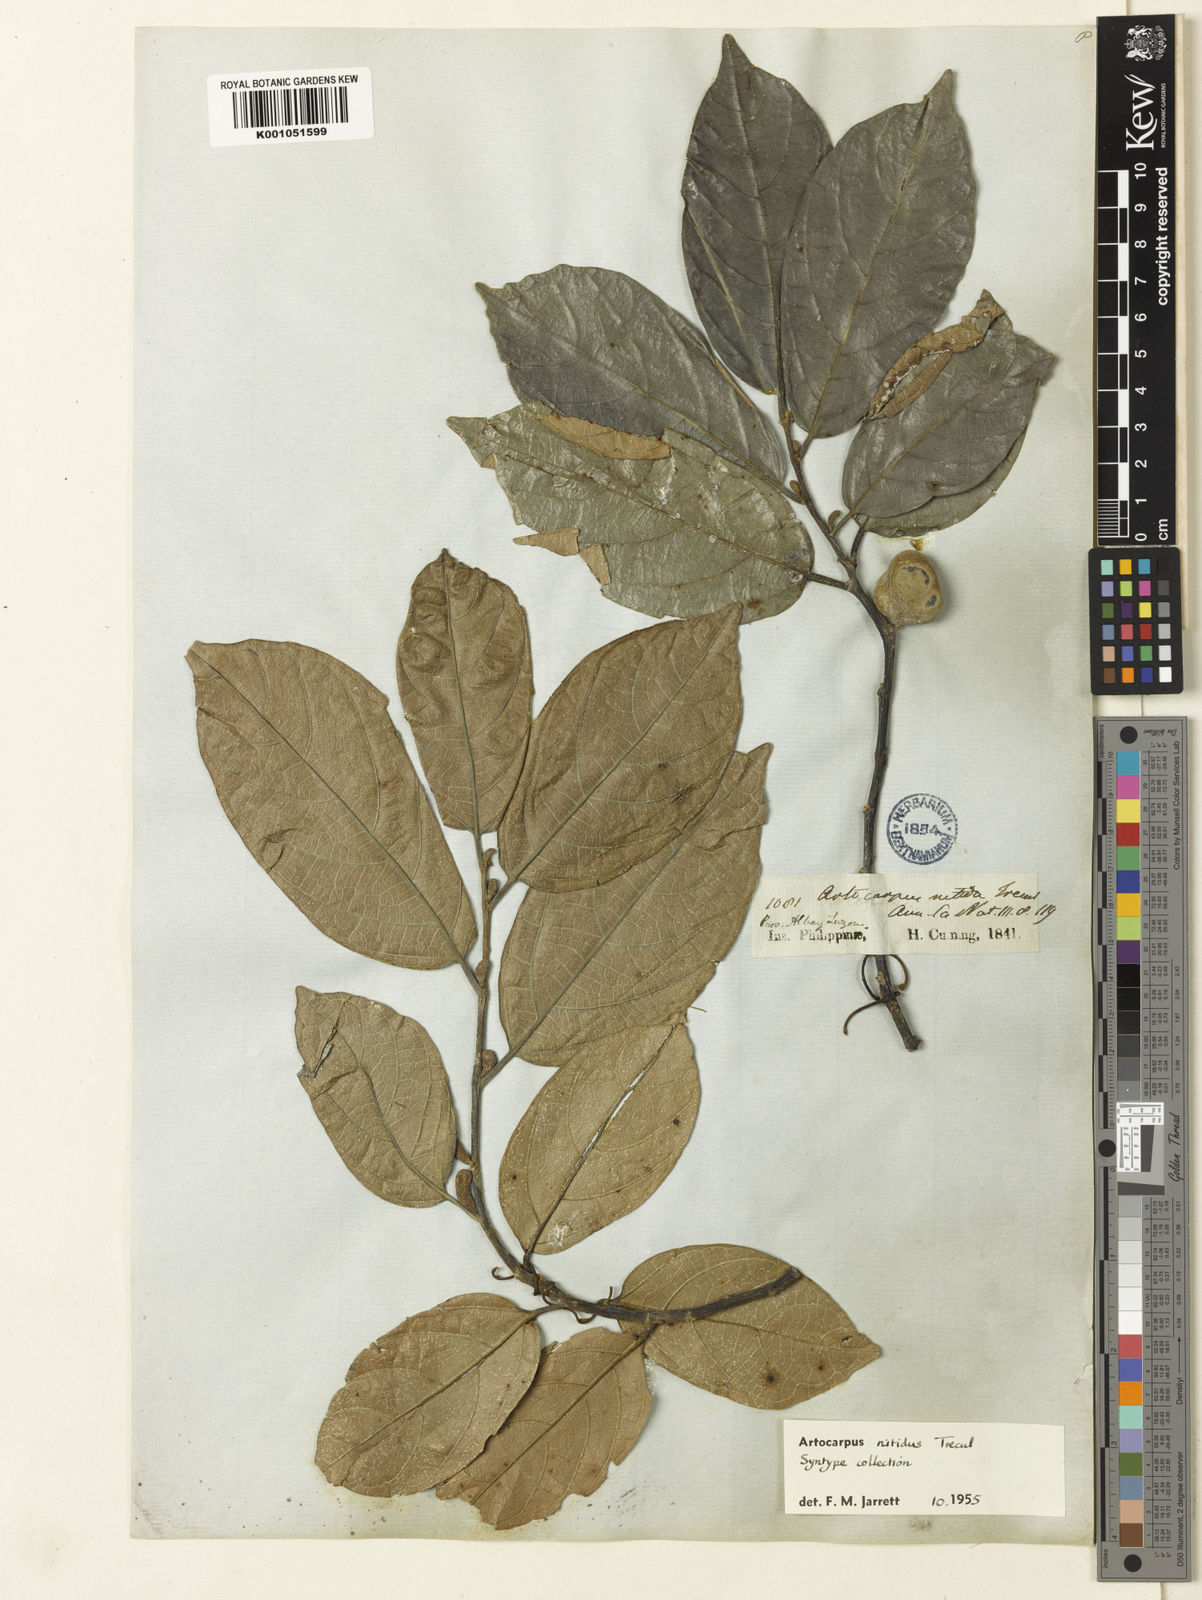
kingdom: Plantae
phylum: Tracheophyta
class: Magnoliopsida
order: Rosales
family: Moraceae
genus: Artocarpus
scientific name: Artocarpus
